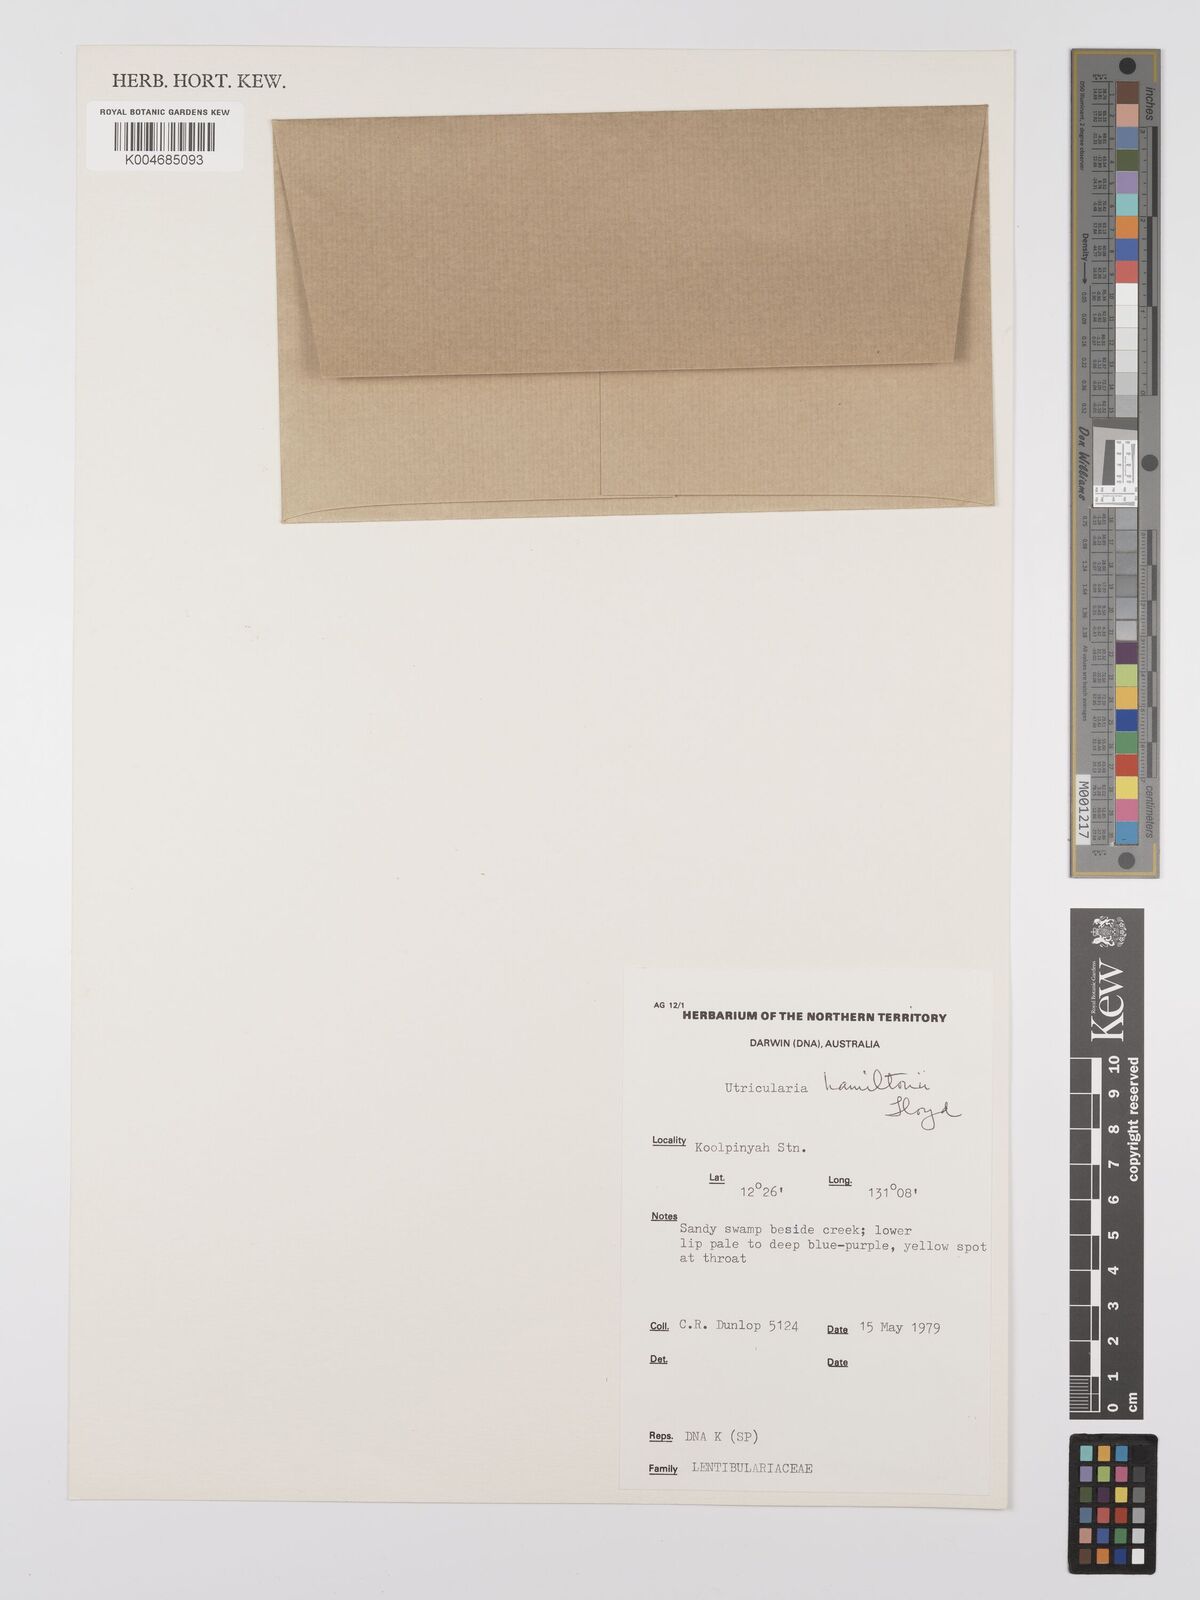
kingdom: Plantae
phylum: Tracheophyta
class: Magnoliopsida
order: Lamiales
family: Lentibulariaceae
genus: Utricularia
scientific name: Utricularia hamiltonii
